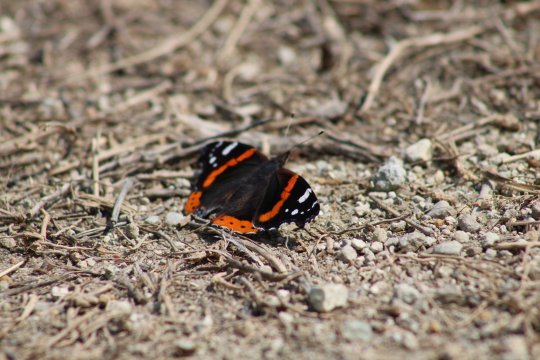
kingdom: Animalia
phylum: Arthropoda
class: Insecta
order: Lepidoptera
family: Nymphalidae
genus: Vanessa
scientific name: Vanessa atalanta
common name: Red Admiral
